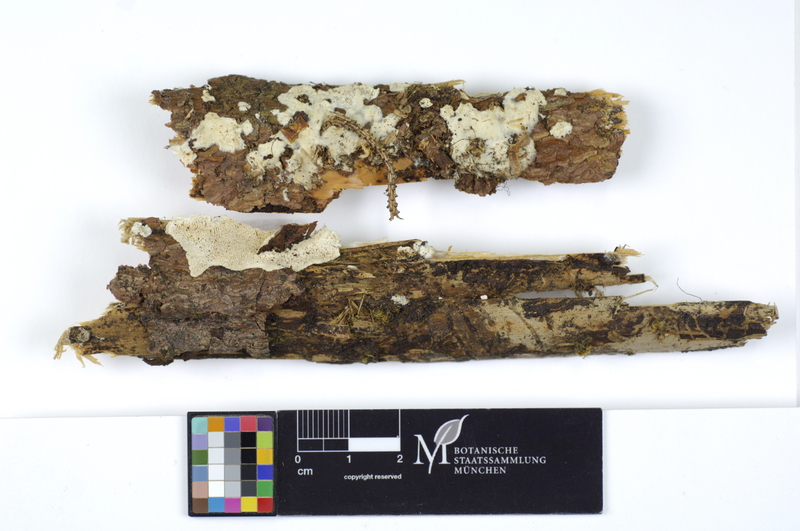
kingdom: Fungi
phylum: Basidiomycota
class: Agaricomycetes
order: Polyporales
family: Gelatoporiaceae
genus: Cinereomyces
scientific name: Cinereomyces lindbladii
